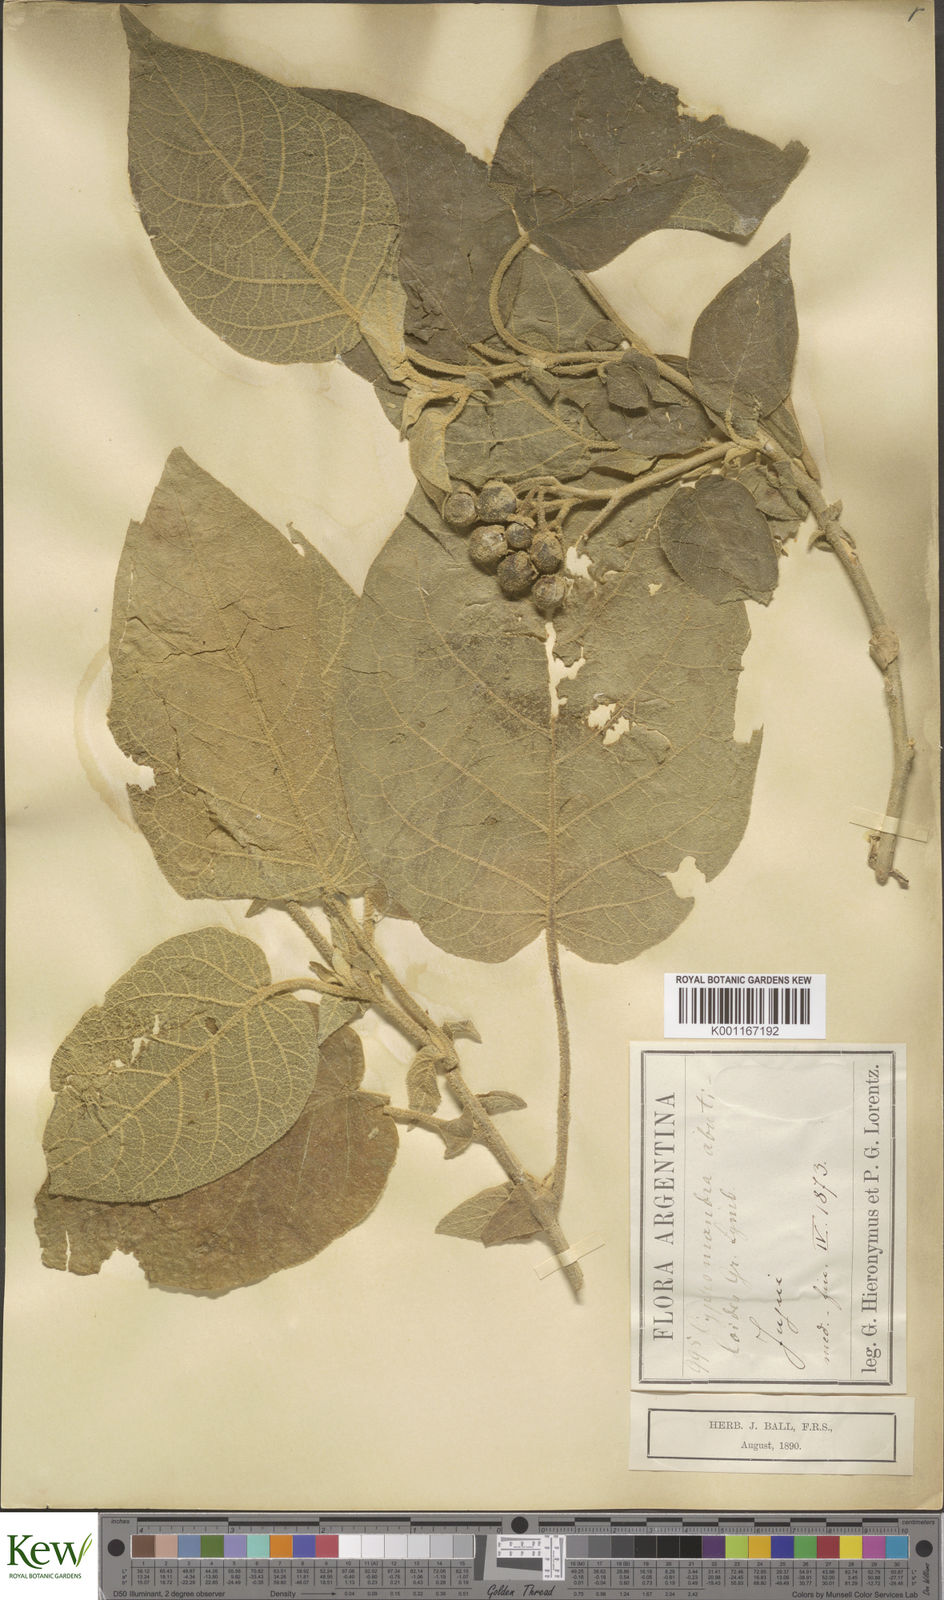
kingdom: Plantae
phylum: Tracheophyta
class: Magnoliopsida
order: Solanales
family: Solanaceae
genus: Solanum
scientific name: Solanum abutiloides
